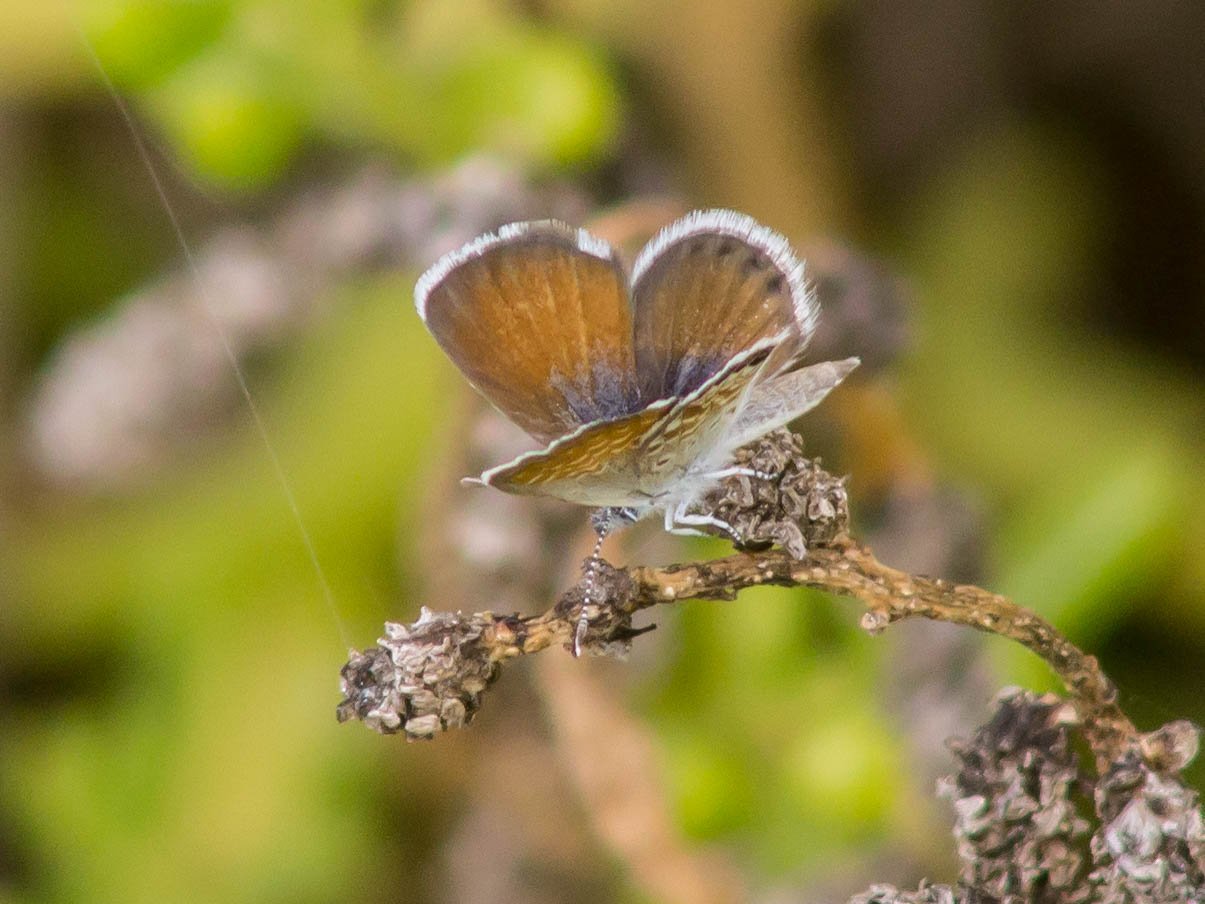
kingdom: Animalia
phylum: Arthropoda
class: Insecta
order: Lepidoptera
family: Lycaenidae
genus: Brephidium
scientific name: Brephidium exilis
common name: Western Pygmy-Blue
